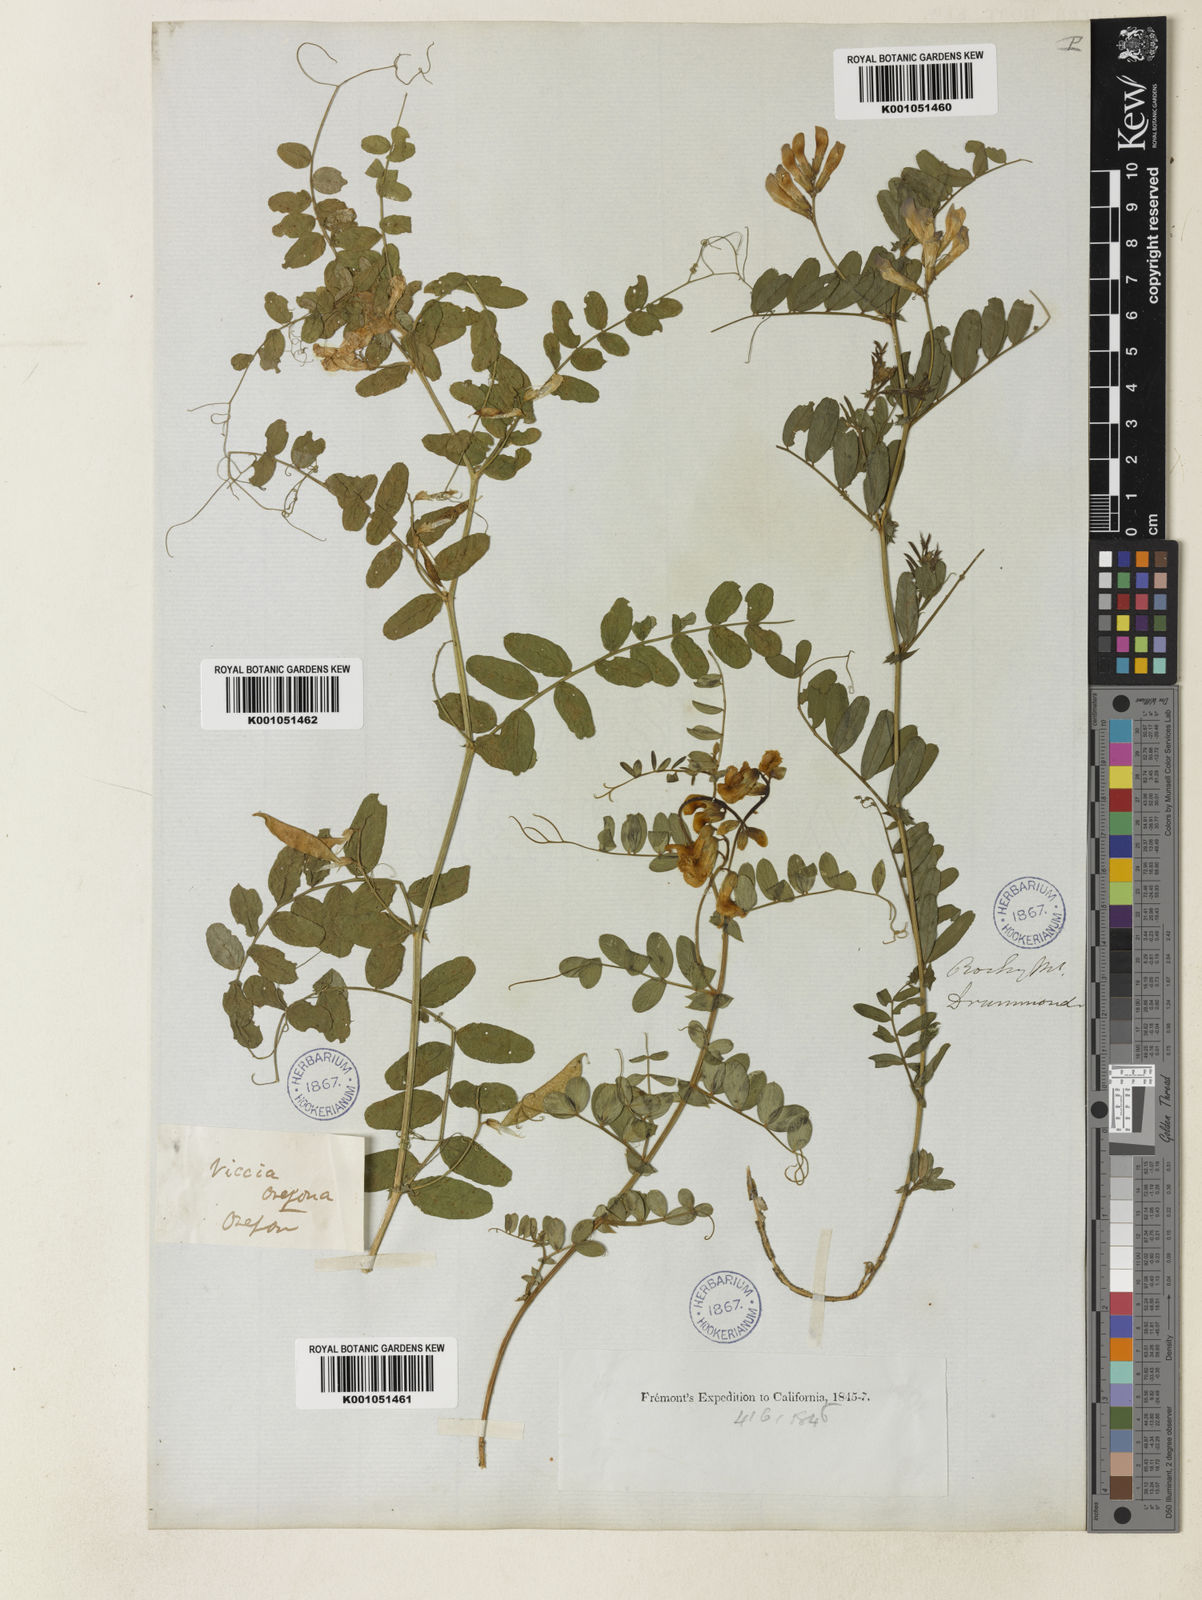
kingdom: Plantae
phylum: Tracheophyta
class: Magnoliopsida
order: Fabales
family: Fabaceae
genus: Vicia
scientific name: Vicia americana
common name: American vetch
